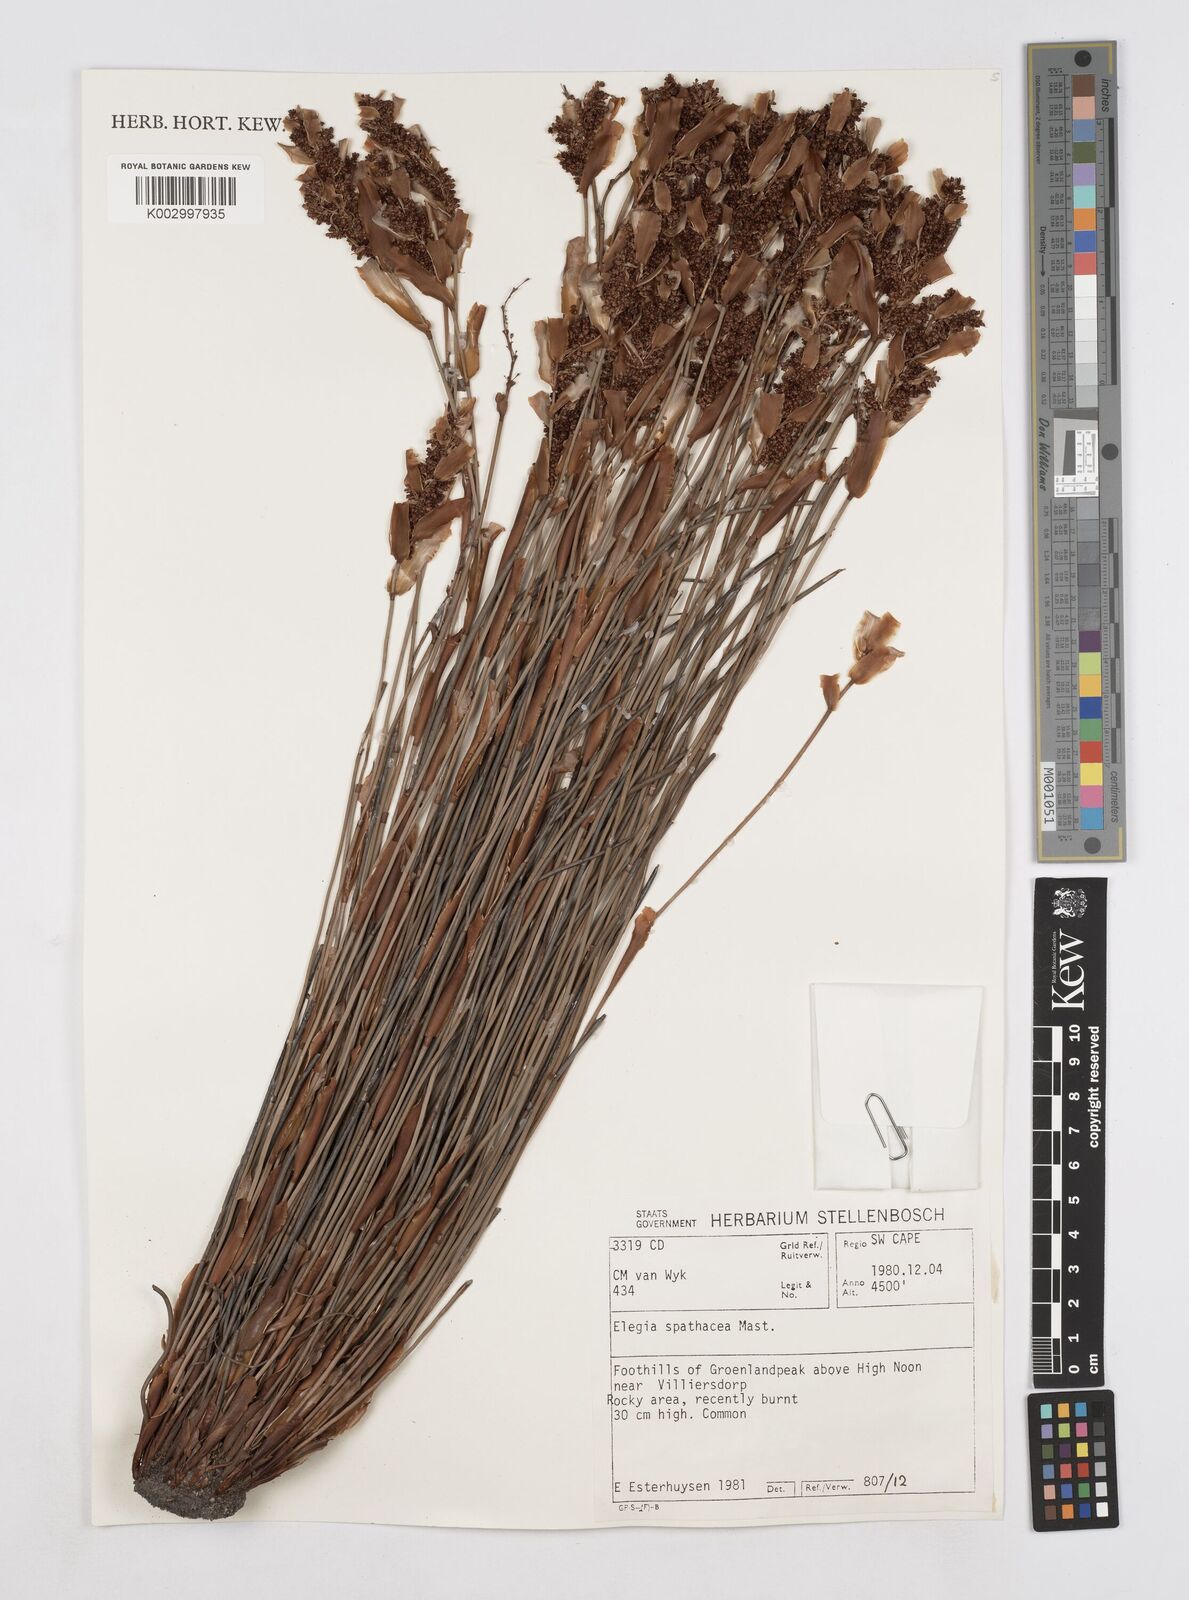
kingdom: Plantae
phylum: Tracheophyta
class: Liliopsida
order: Poales
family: Restionaceae
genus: Elegia
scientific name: Elegia spathacea
